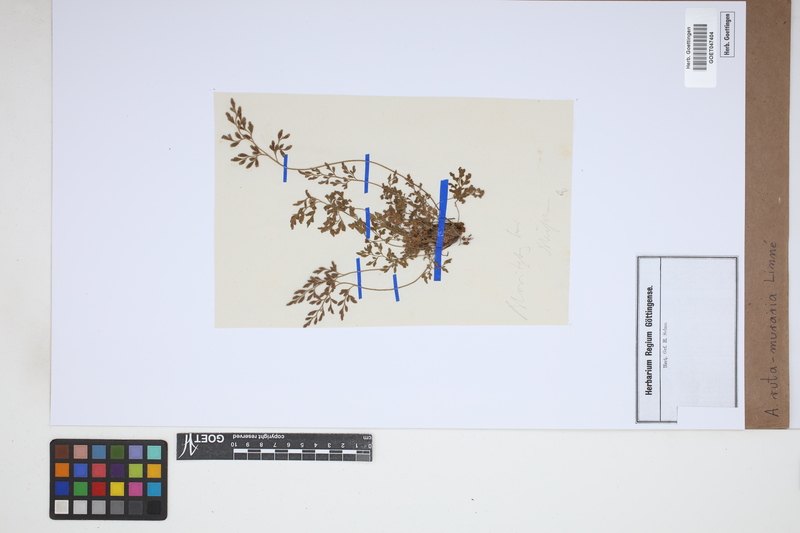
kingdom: Plantae
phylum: Tracheophyta
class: Polypodiopsida
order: Polypodiales
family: Aspleniaceae
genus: Asplenium
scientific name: Asplenium ruta-muraria
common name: Wall-rue
